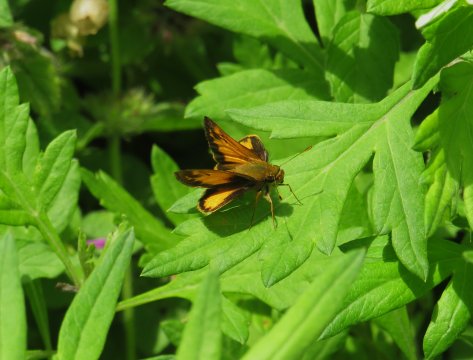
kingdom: Animalia
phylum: Arthropoda
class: Insecta
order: Lepidoptera
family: Hesperiidae
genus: Lon
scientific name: Lon zabulon
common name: Zabulon Skipper
